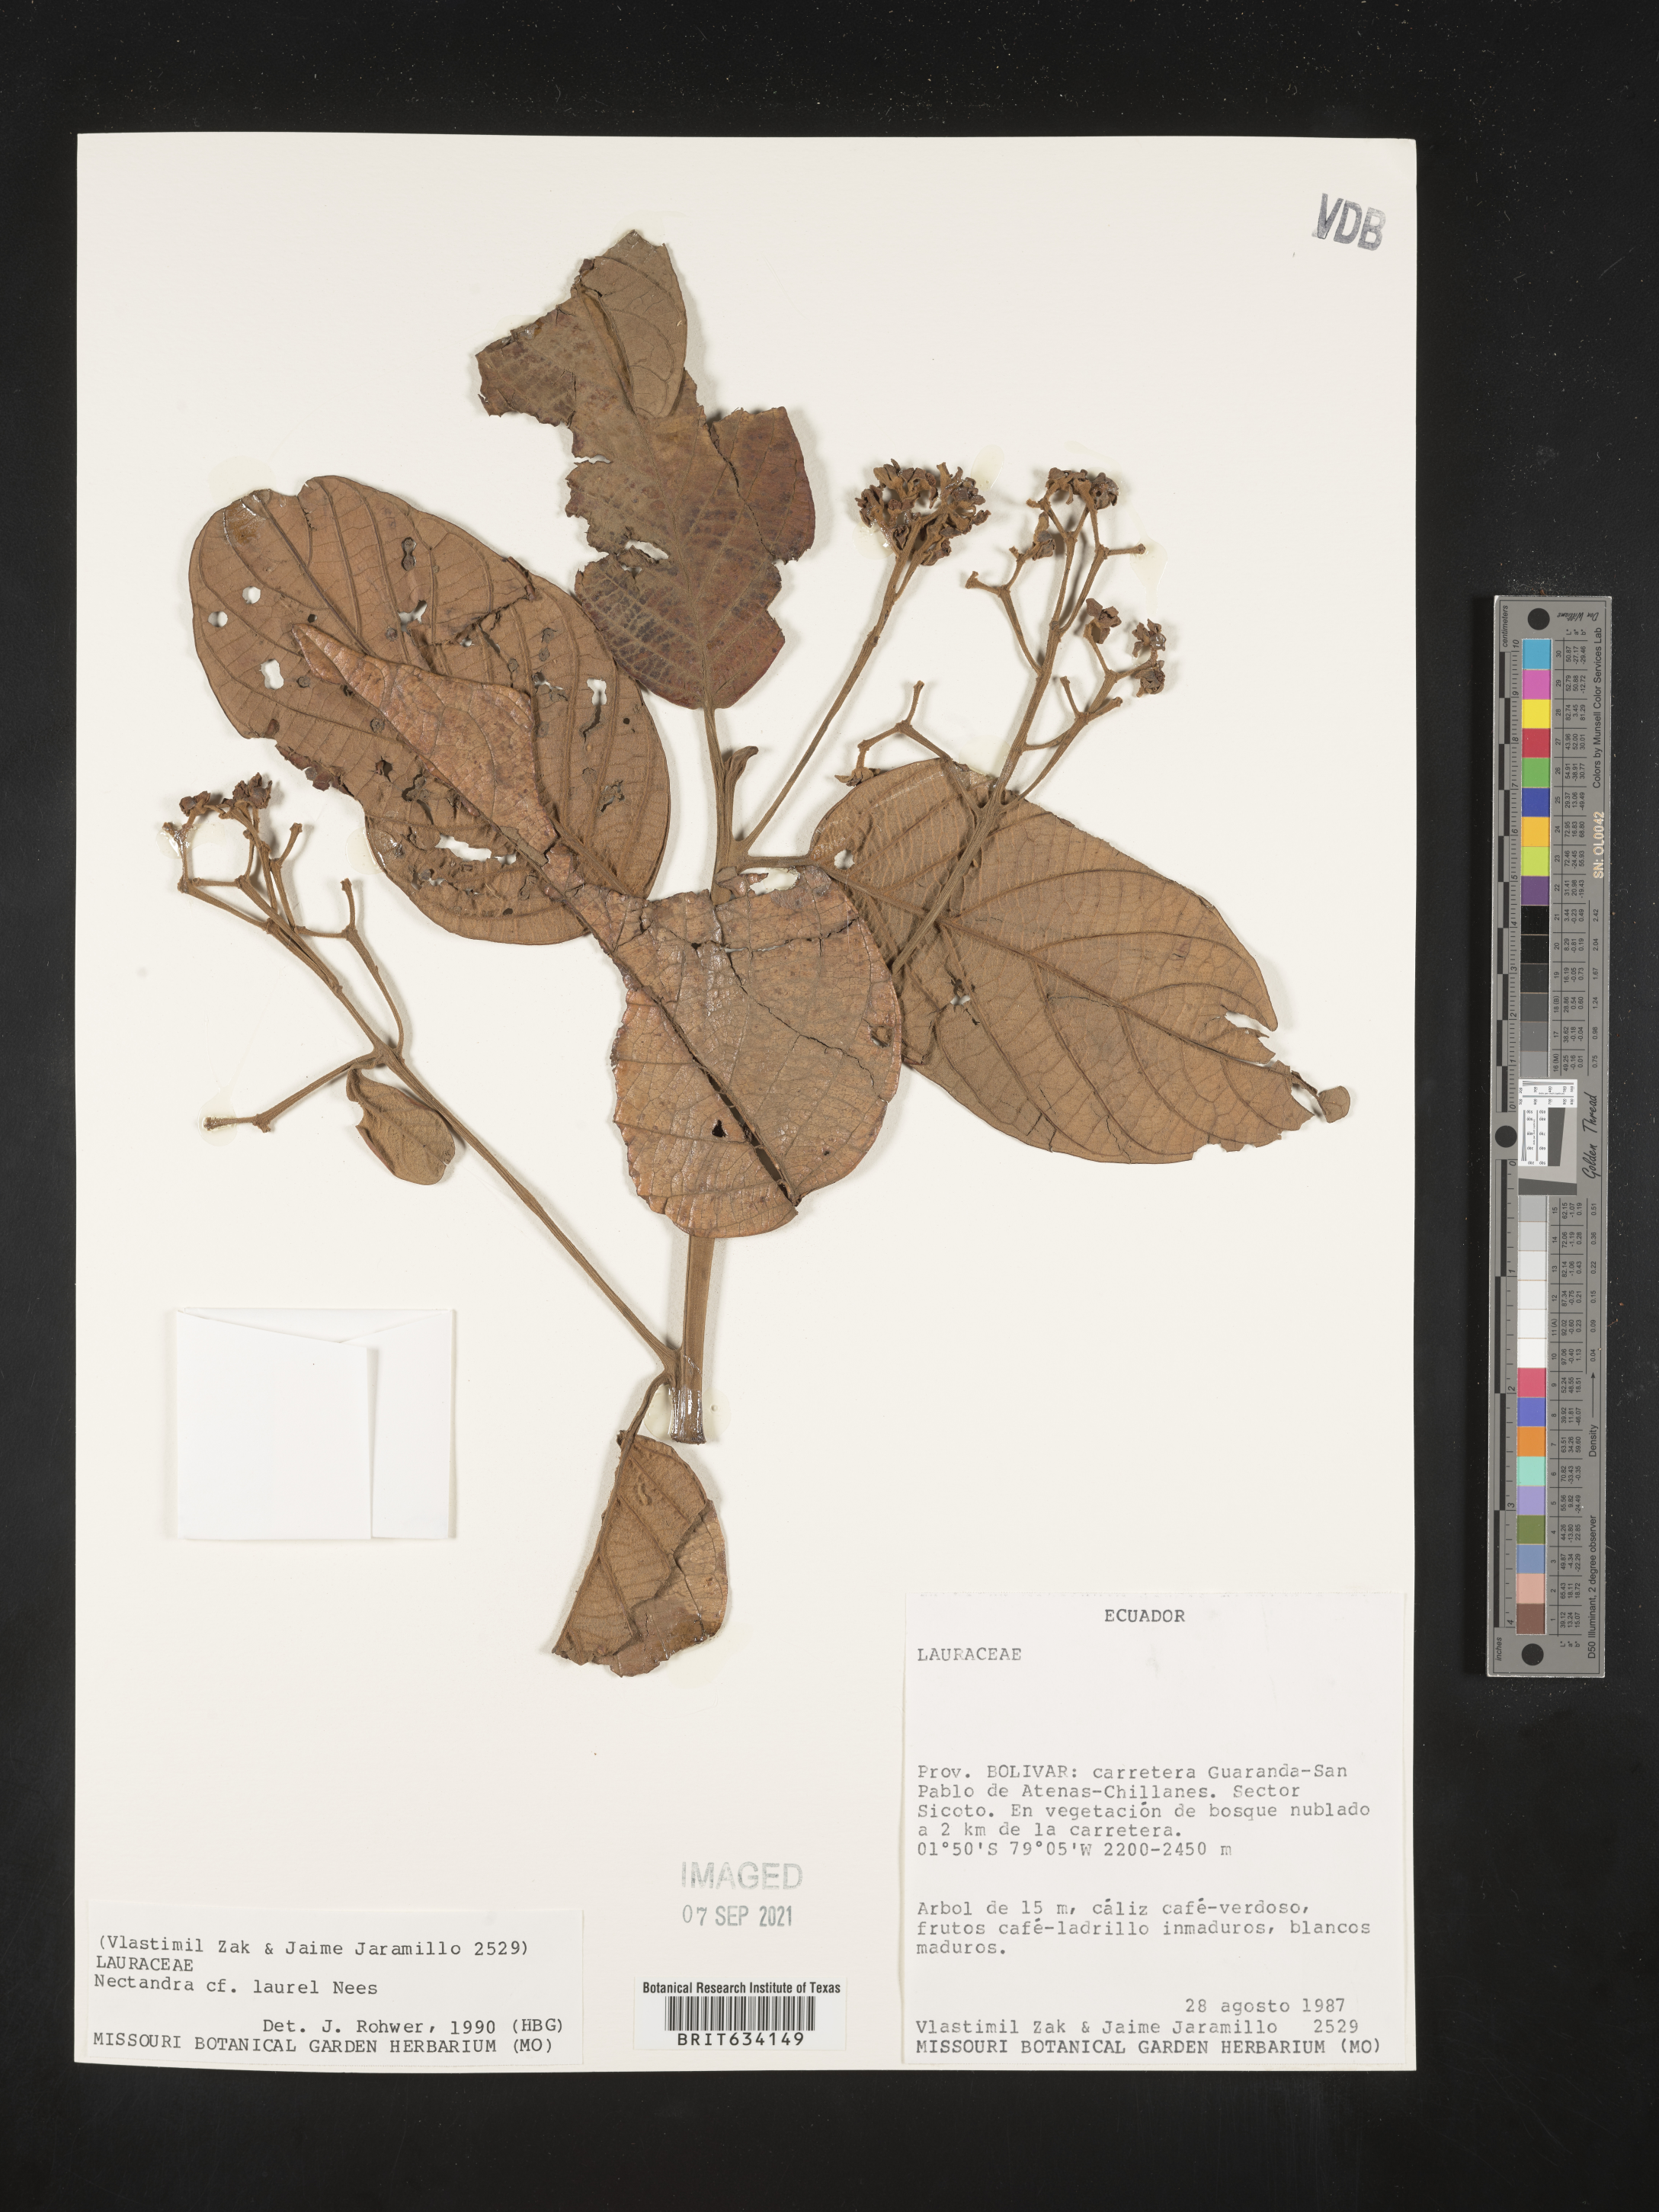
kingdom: Plantae
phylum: Tracheophyta
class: Magnoliopsida
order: Laurales
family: Lauraceae
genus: Nectandra
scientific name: Nectandra
